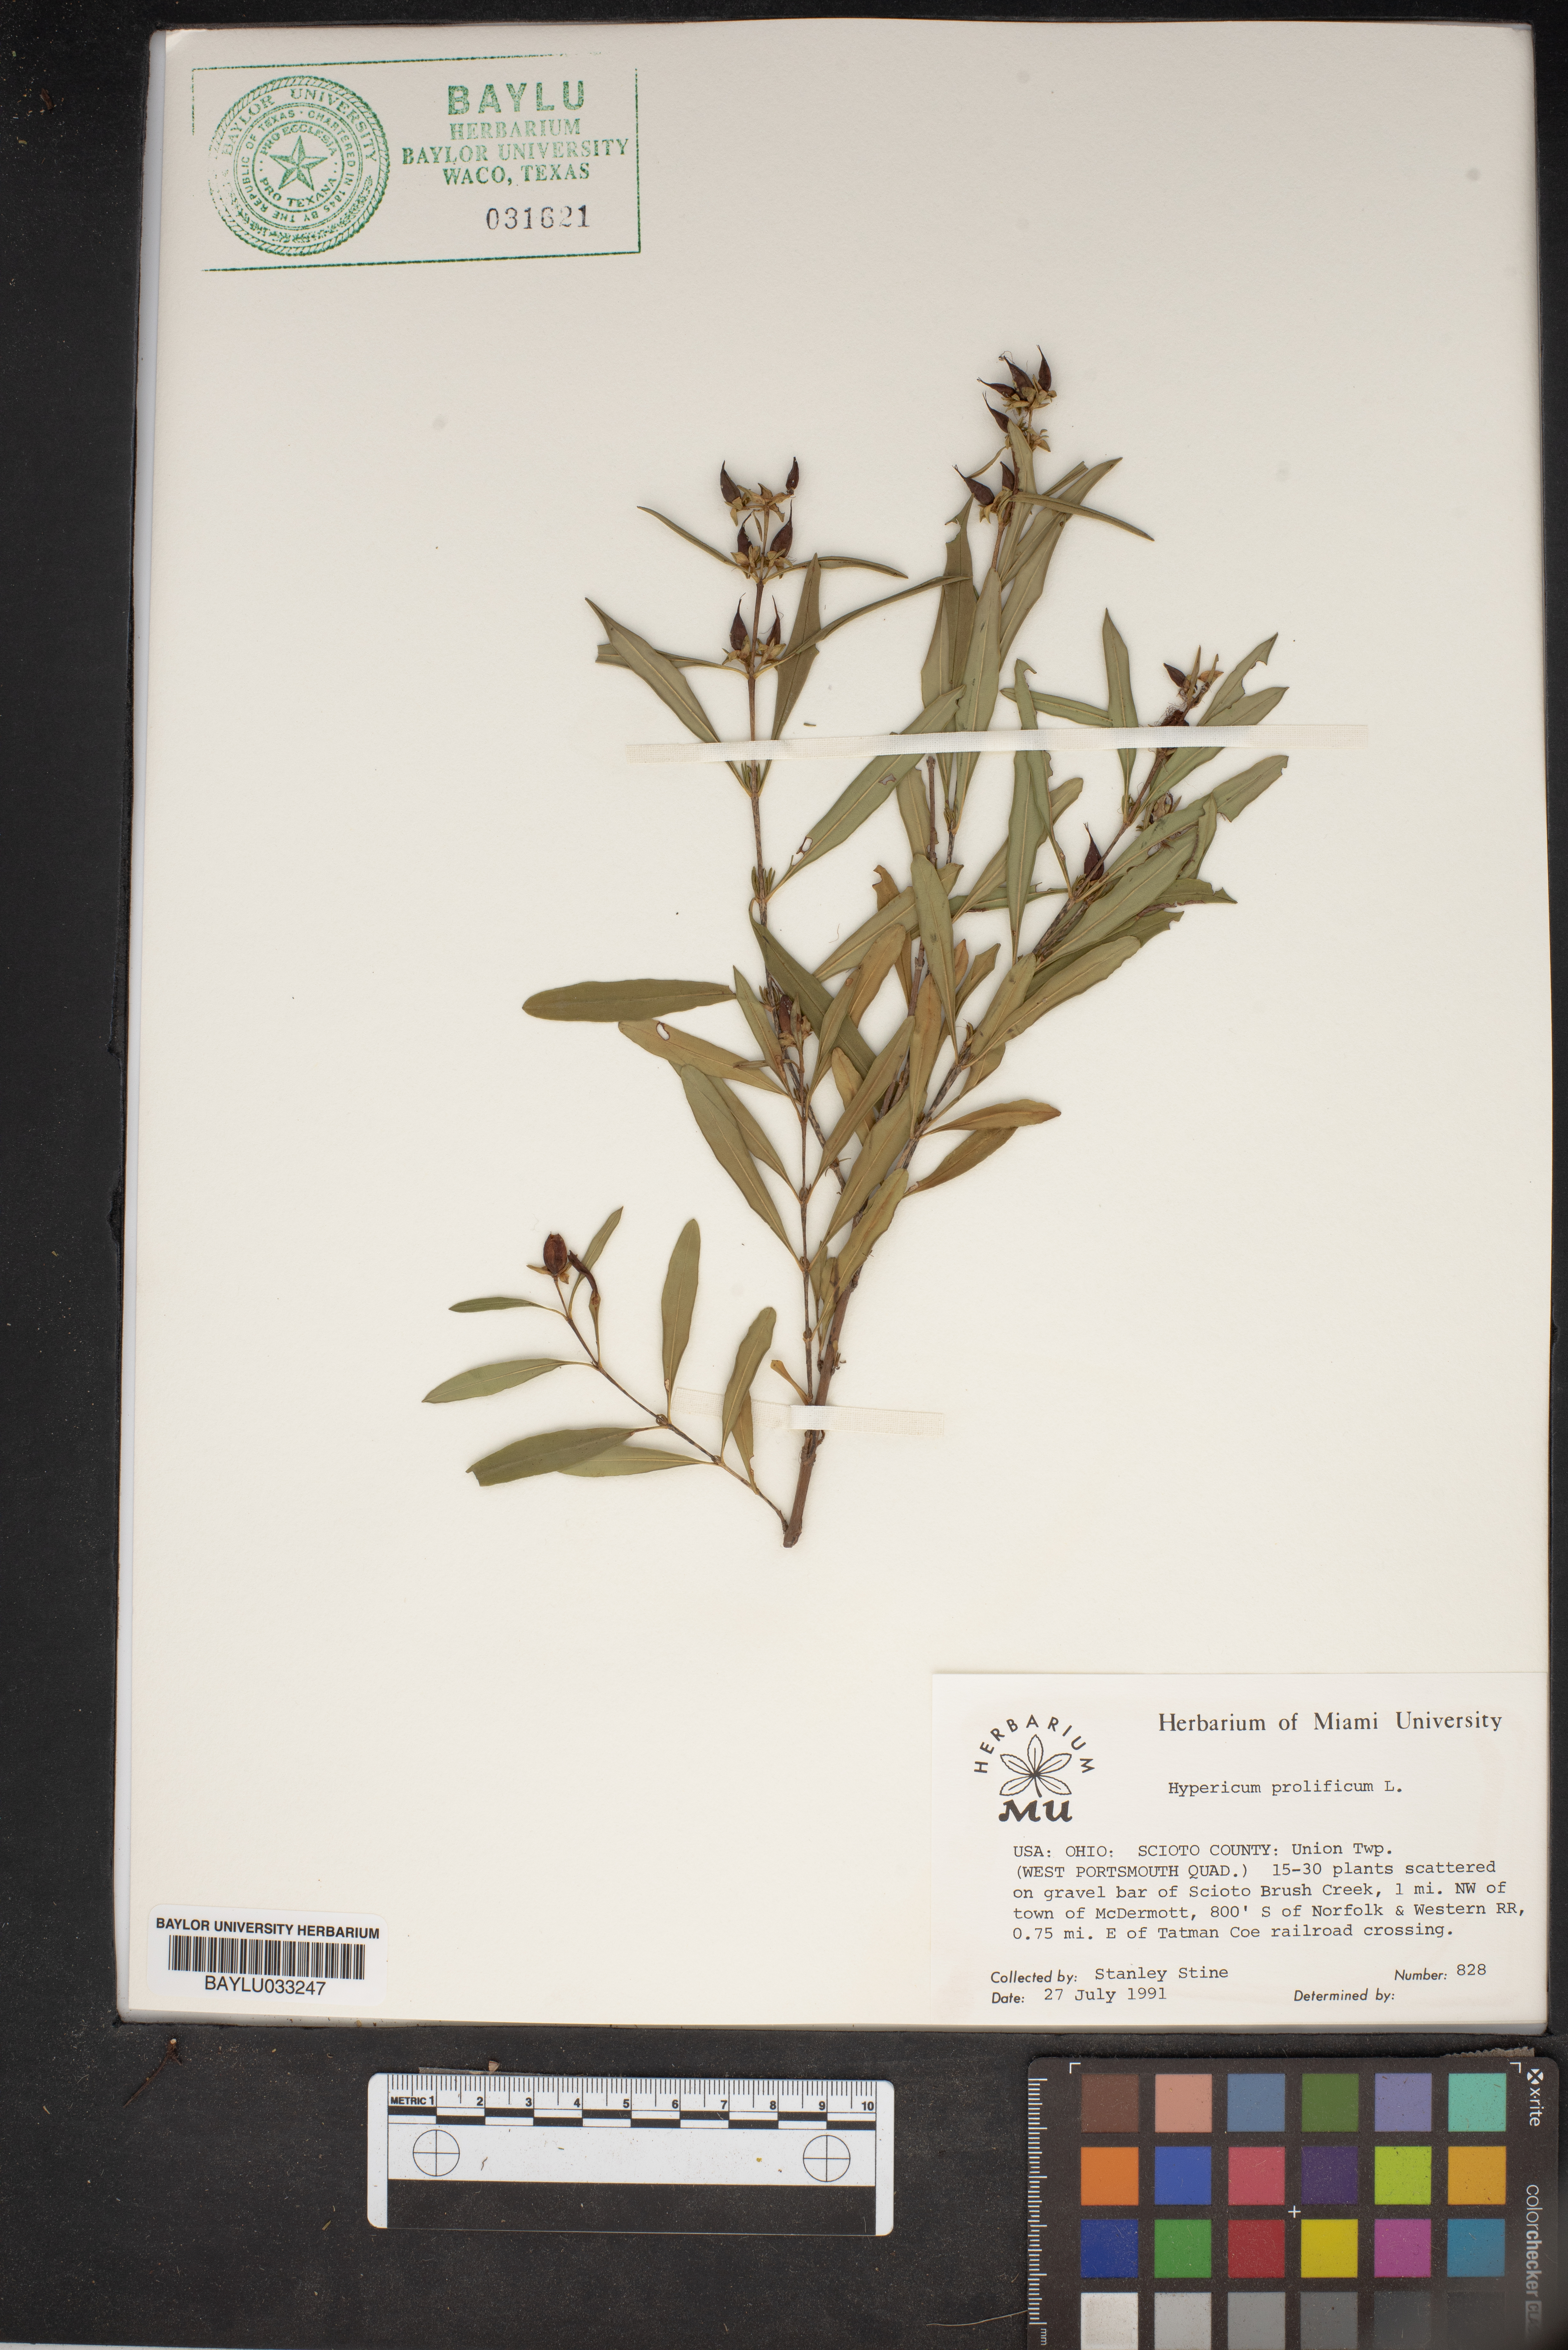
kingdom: Plantae
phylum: Tracheophyta
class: Magnoliopsida
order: Malpighiales
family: Hypericaceae
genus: Hypericum
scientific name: Hypericum prolificum
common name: Shrubby st. john's-wort
